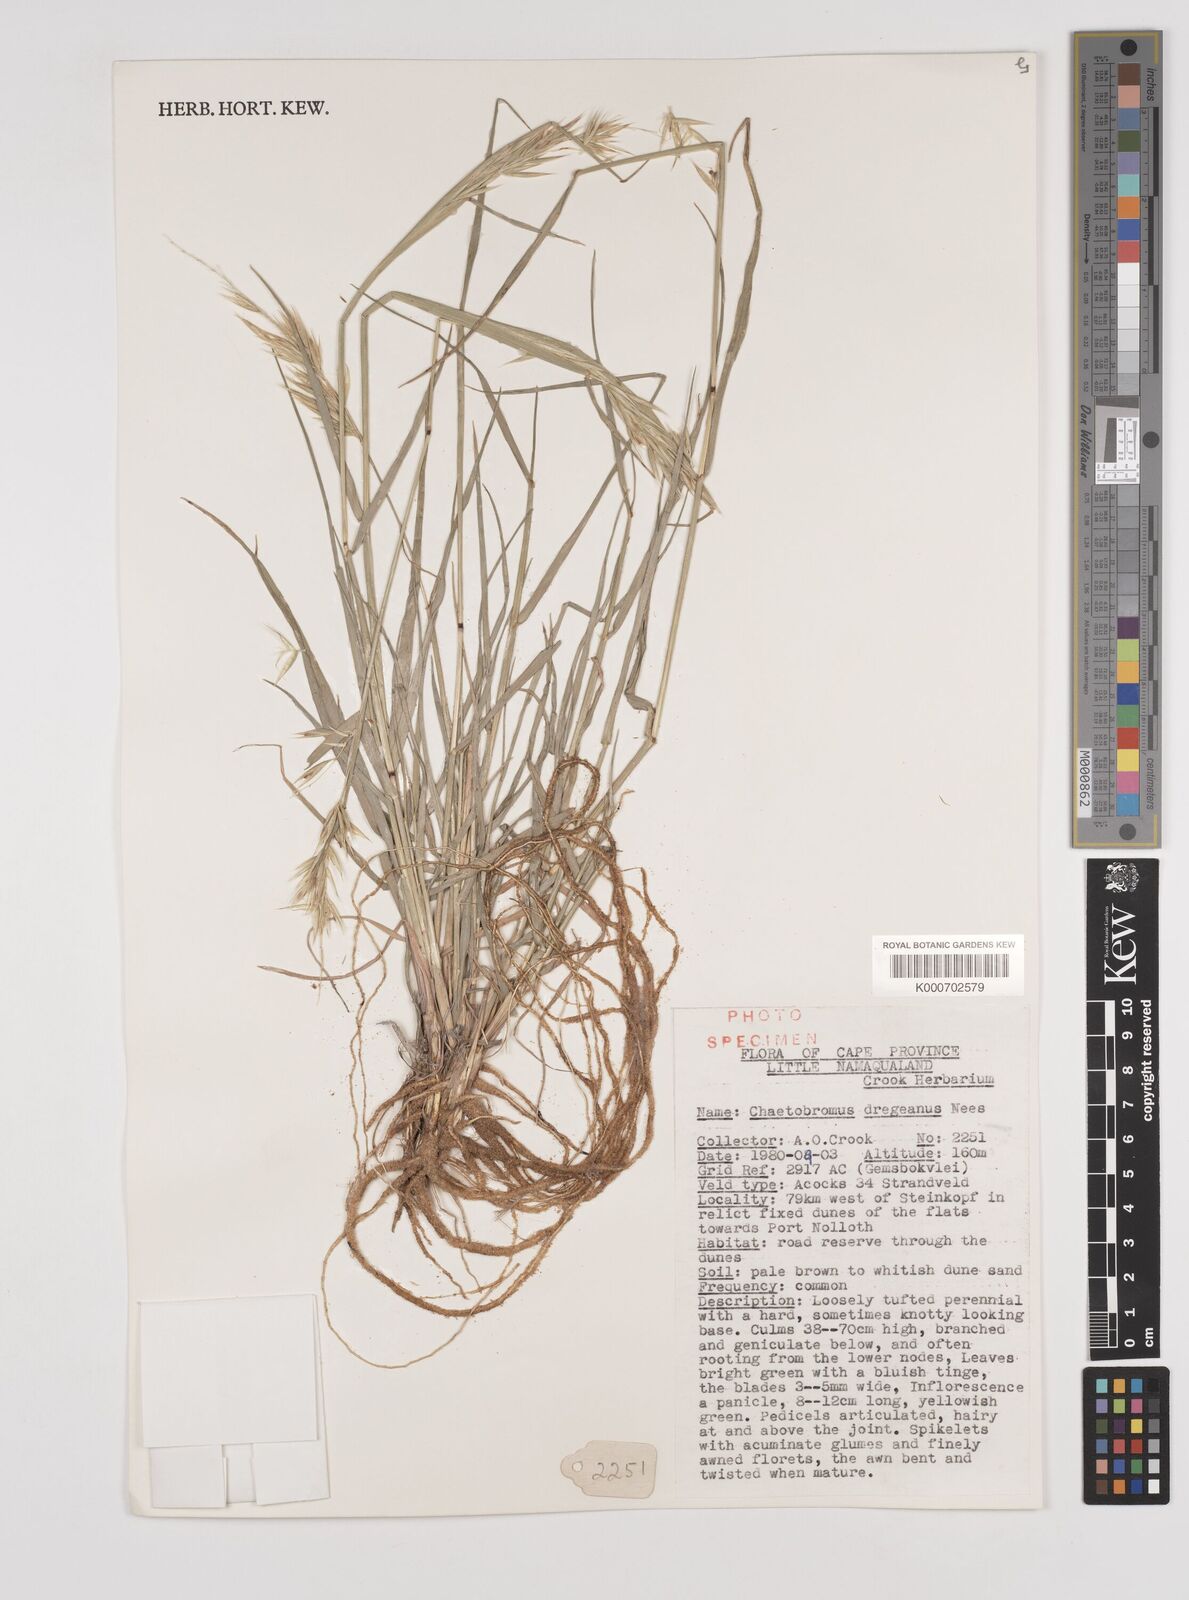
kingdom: Plantae
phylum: Tracheophyta
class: Liliopsida
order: Poales
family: Poaceae
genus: Chaetobromus
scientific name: Chaetobromus involucratus
